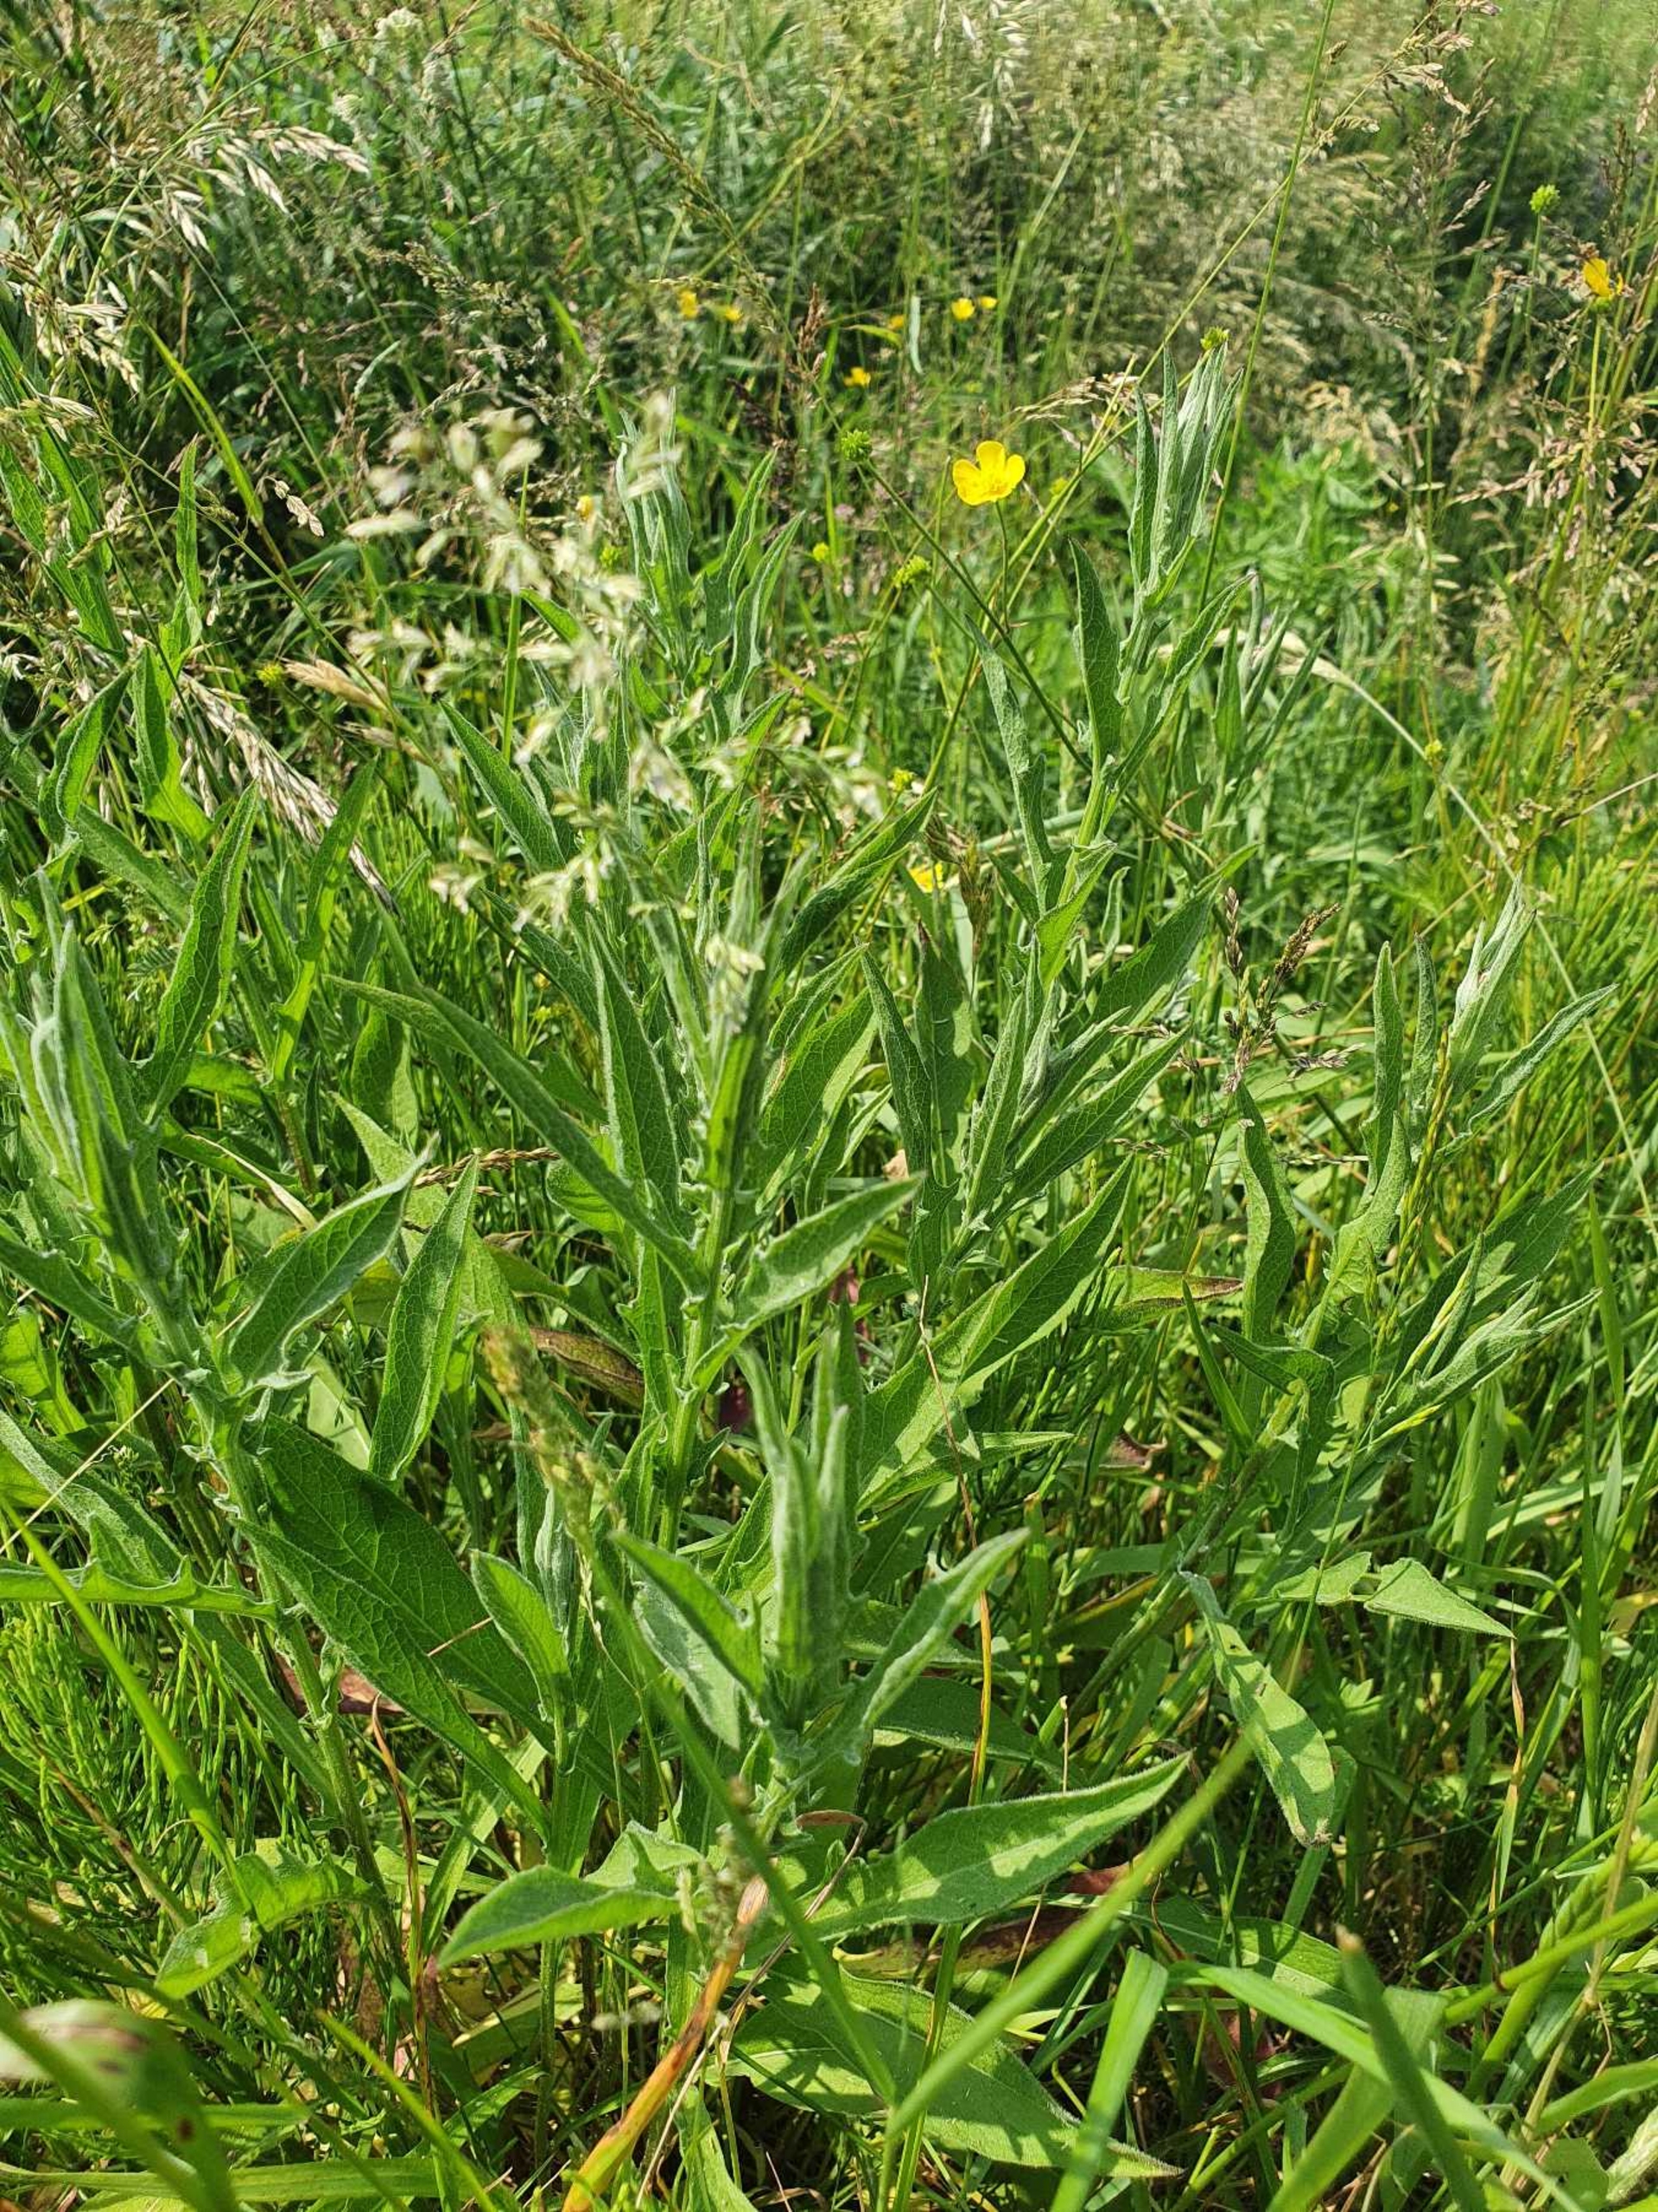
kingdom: Plantae
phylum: Tracheophyta
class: Magnoliopsida
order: Asterales
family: Asteraceae
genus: Centaurea
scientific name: Centaurea jacea
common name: Almindelig knopurt
